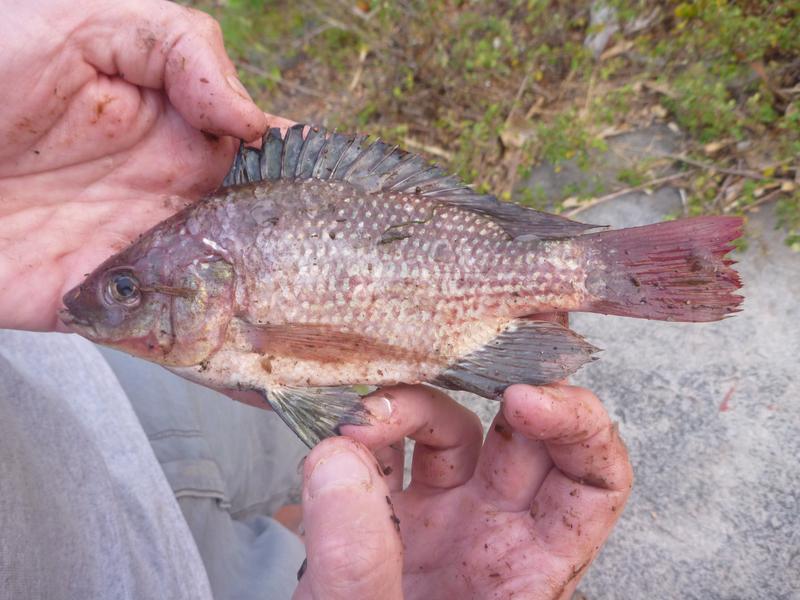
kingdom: Animalia
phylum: Chordata
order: Perciformes
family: Cichlidae
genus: Oreochromis
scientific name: Oreochromis esculentus
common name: Carp
